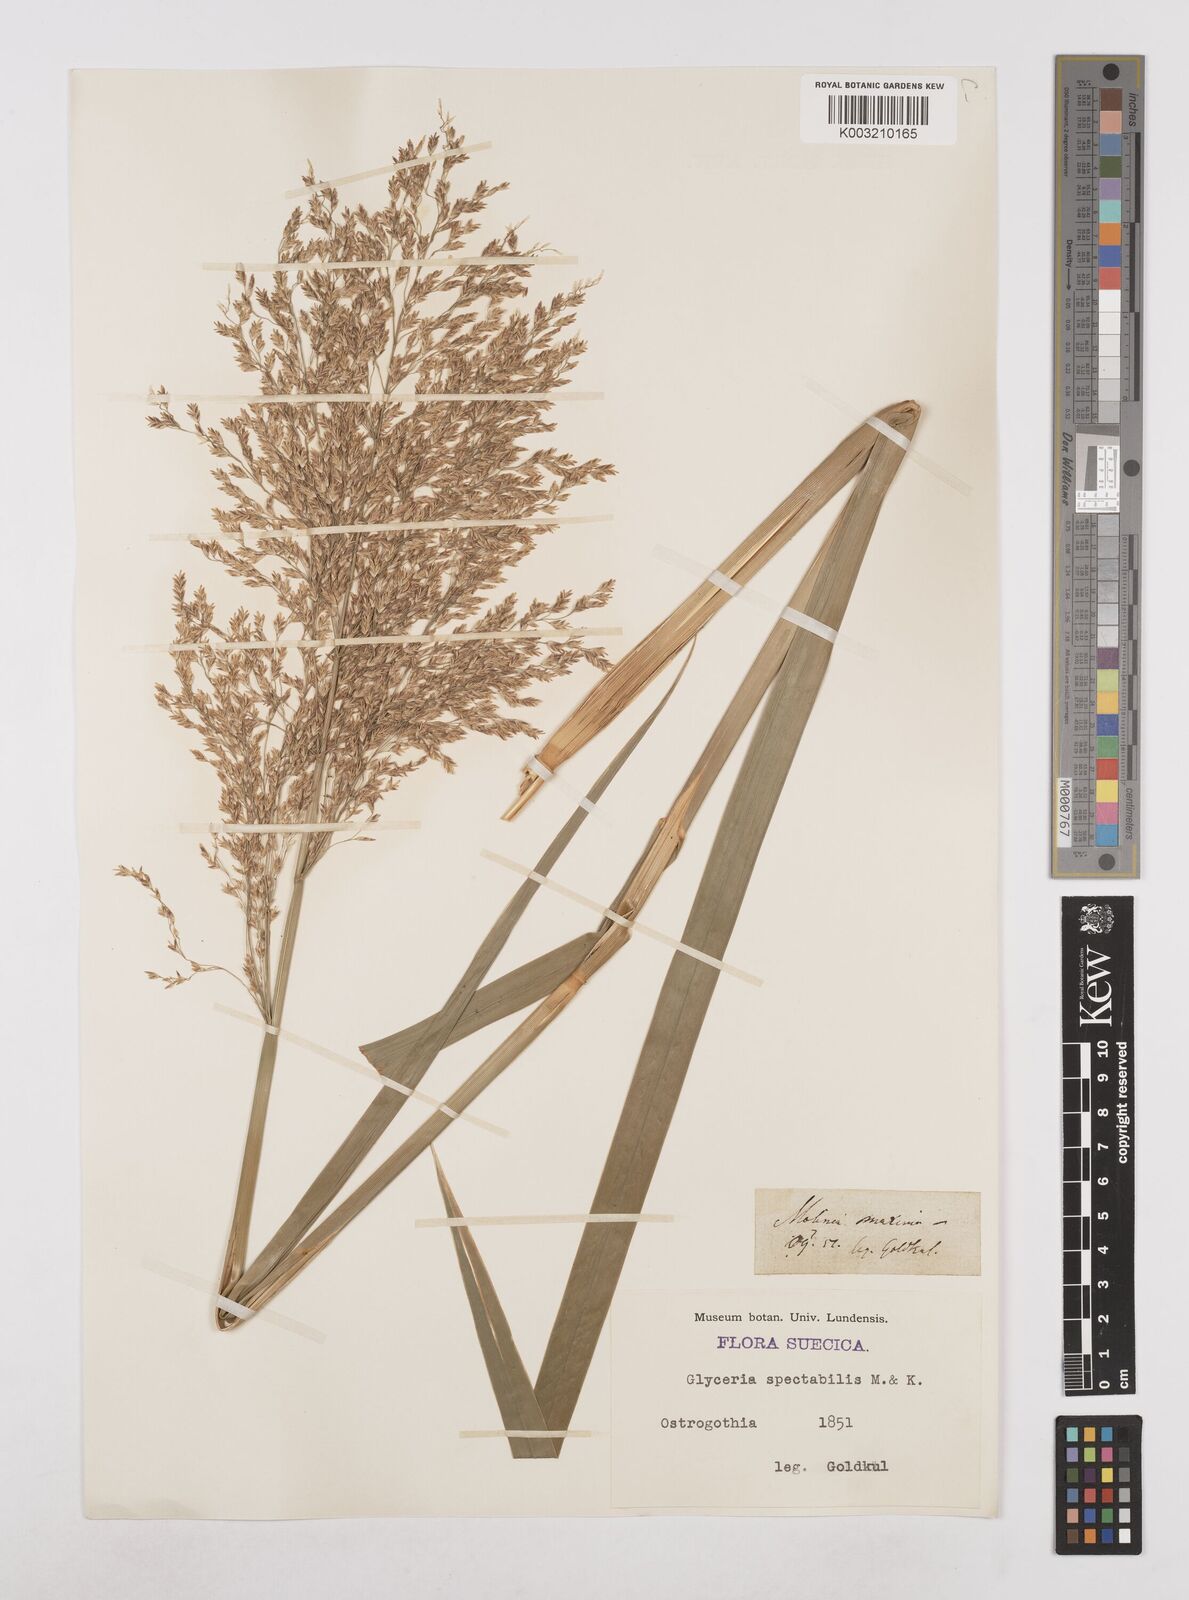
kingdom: Plantae
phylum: Tracheophyta
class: Liliopsida
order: Poales
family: Poaceae
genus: Glyceria
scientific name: Glyceria maxima
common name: Reed mannagrass
